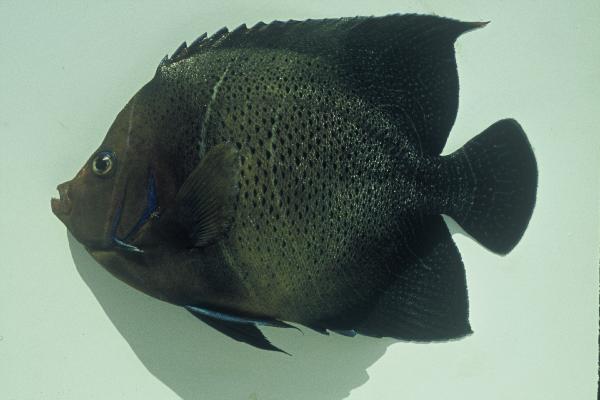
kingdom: Animalia
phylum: Chordata
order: Perciformes
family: Pomacanthidae
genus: Pomacanthus
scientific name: Pomacanthus semicirculatus
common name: Semicircle angelfish
